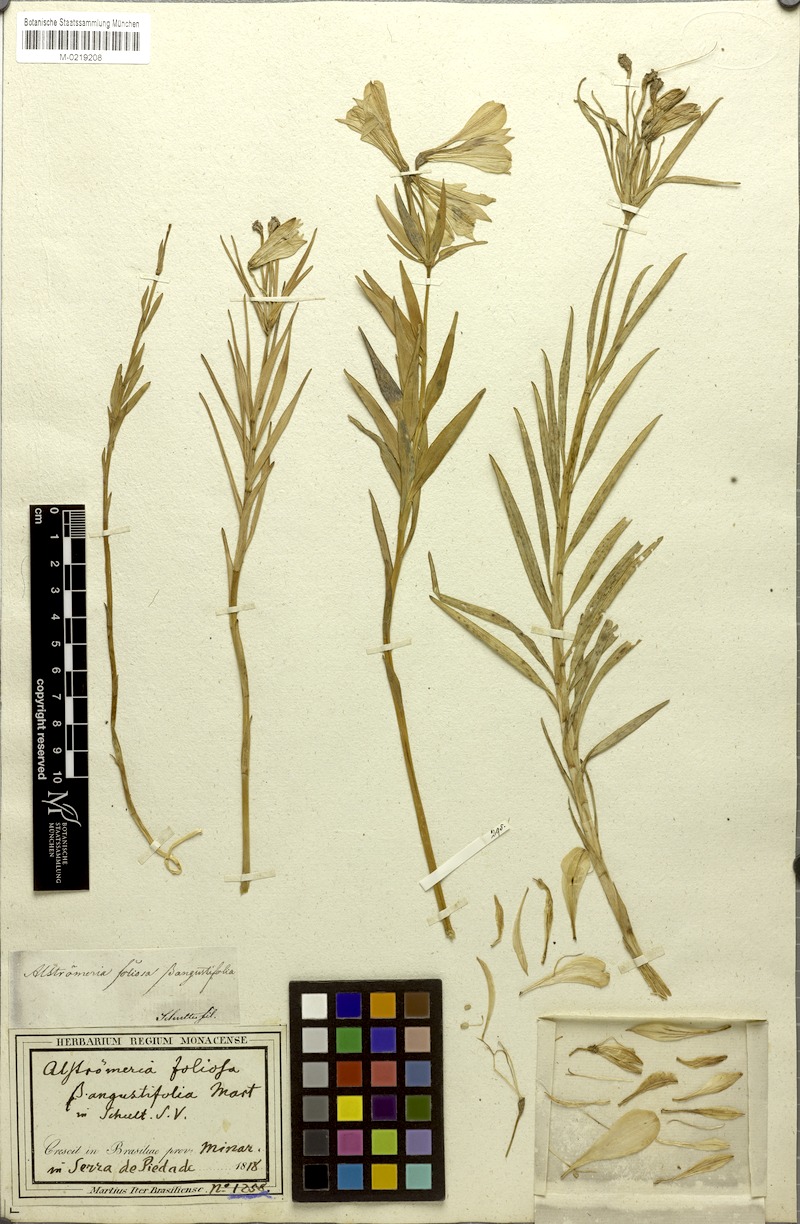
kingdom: Plantae
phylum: Tracheophyta
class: Liliopsida
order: Liliales
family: Alstroemeriaceae
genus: Alstroemeria
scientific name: Alstroemeria foliosa
